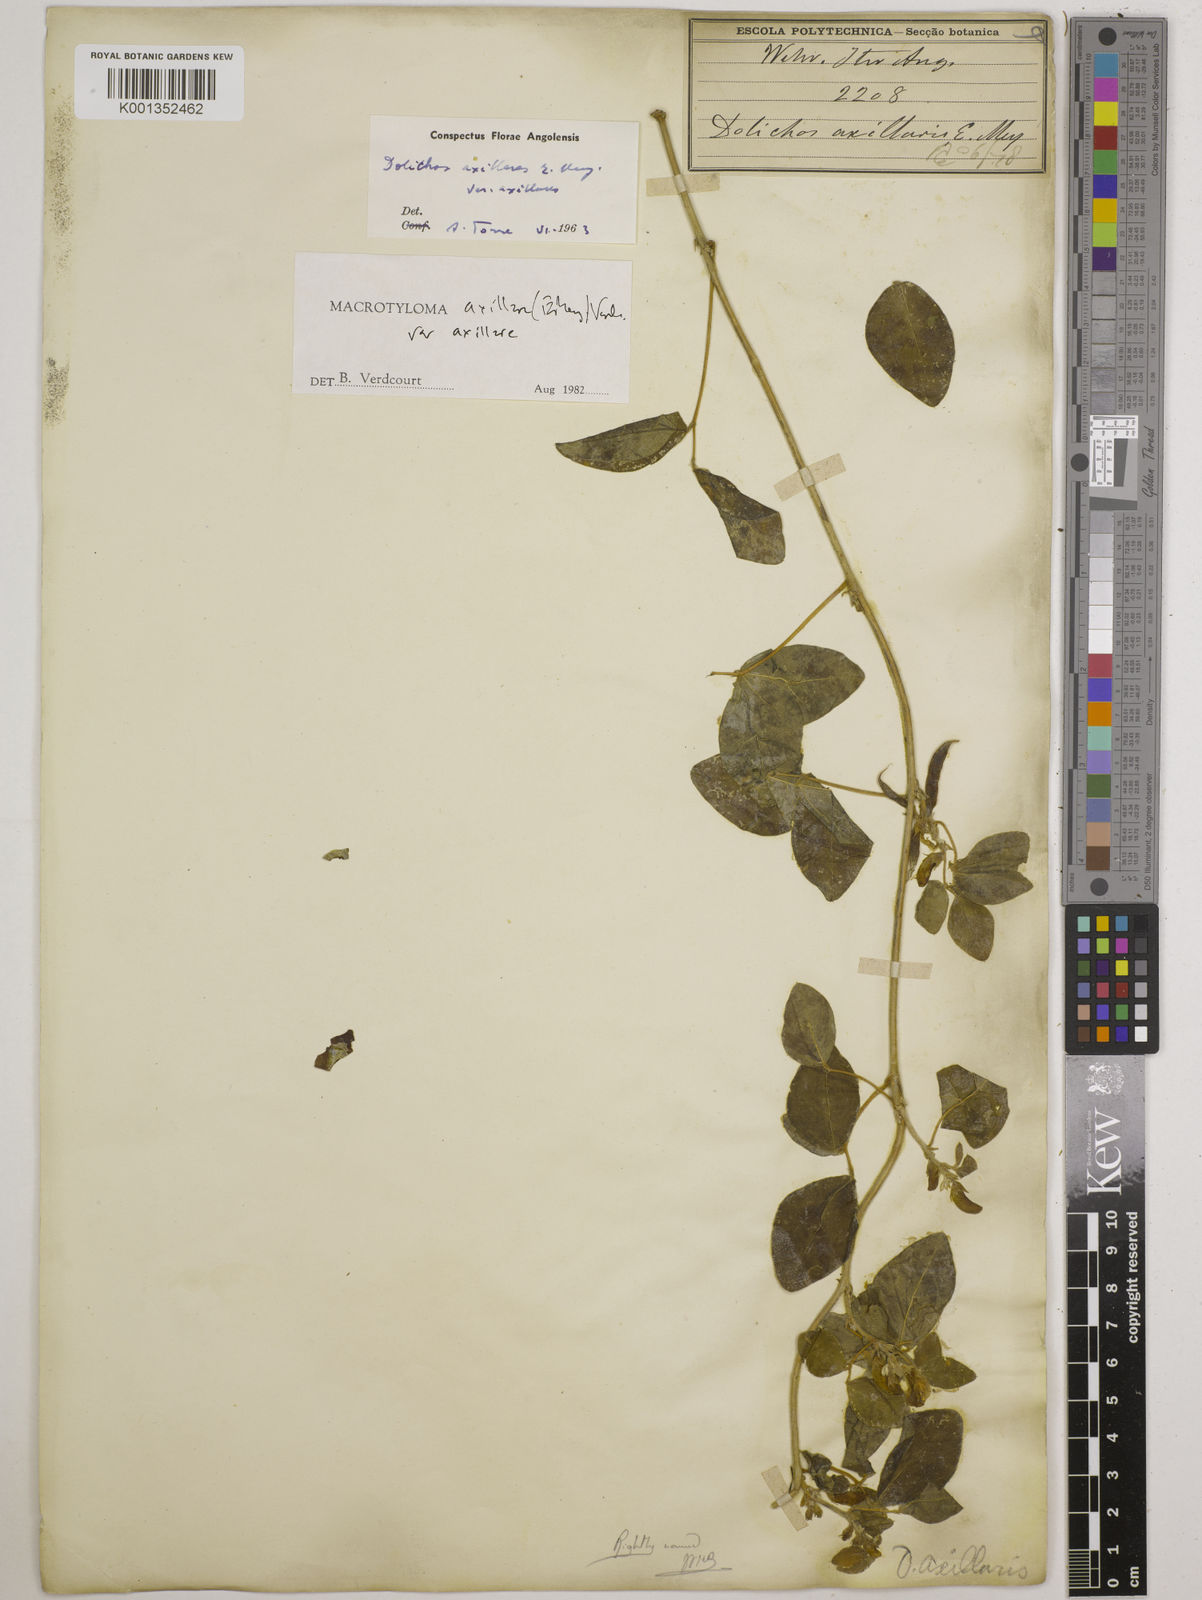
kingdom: Plantae
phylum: Tracheophyta
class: Magnoliopsida
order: Fabales
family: Fabaceae
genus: Macrotyloma
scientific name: Macrotyloma axillare
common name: Perennial horsegram
